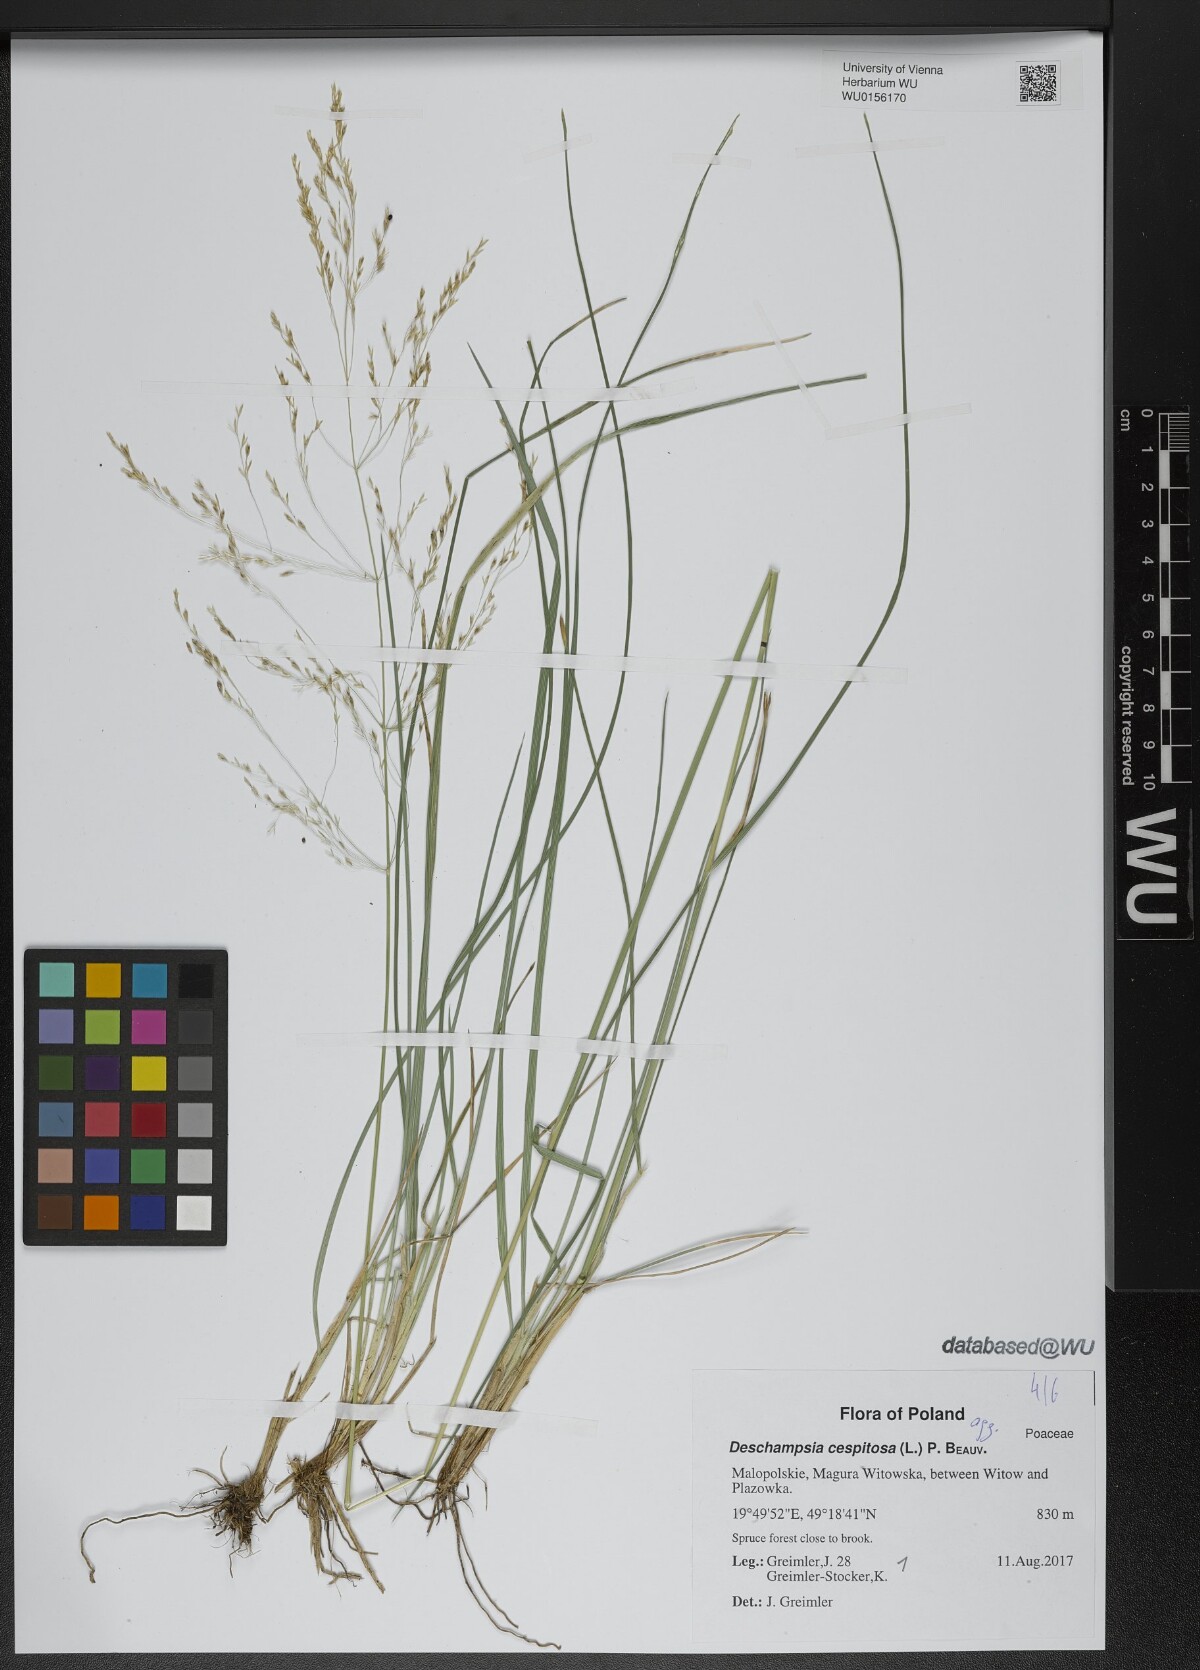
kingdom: Plantae
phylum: Tracheophyta
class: Liliopsida
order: Poales
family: Poaceae
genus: Deschampsia
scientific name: Deschampsia cespitosa
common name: Tufted hair-grass
